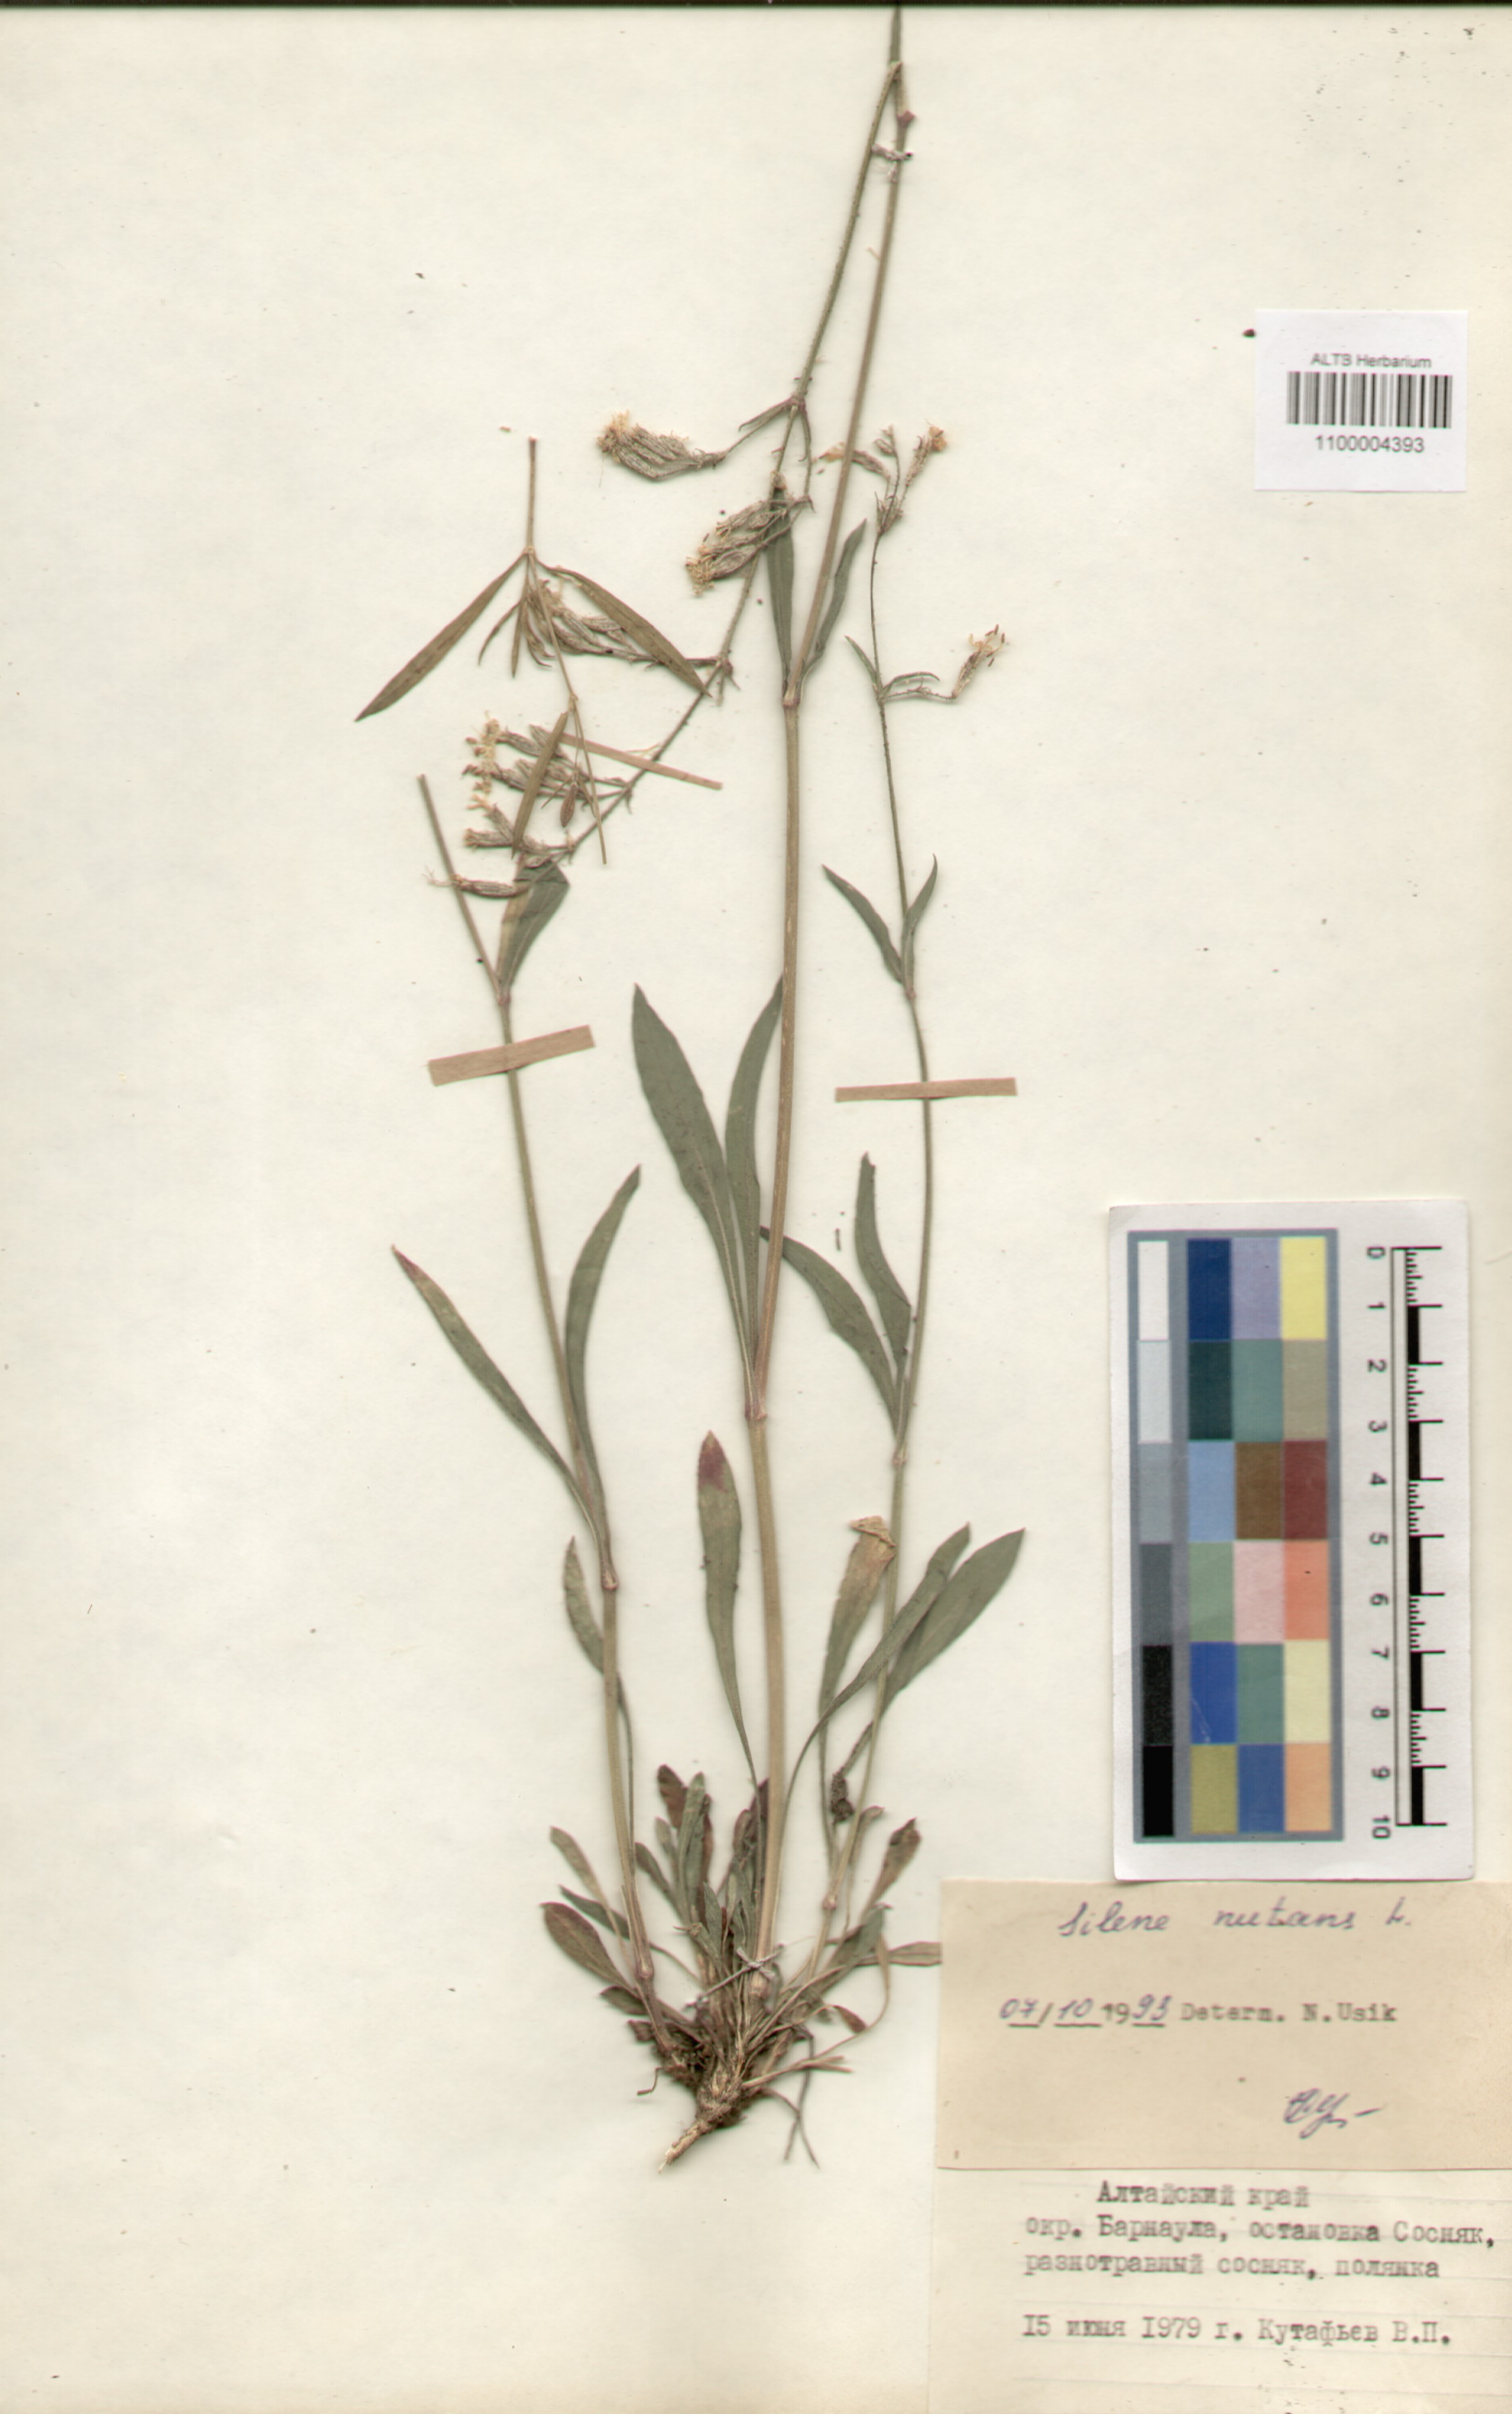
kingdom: Plantae
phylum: Tracheophyta
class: Magnoliopsida
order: Caryophyllales
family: Caryophyllaceae
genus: Silene
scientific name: Silene nutans
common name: Nottingham catchfly
